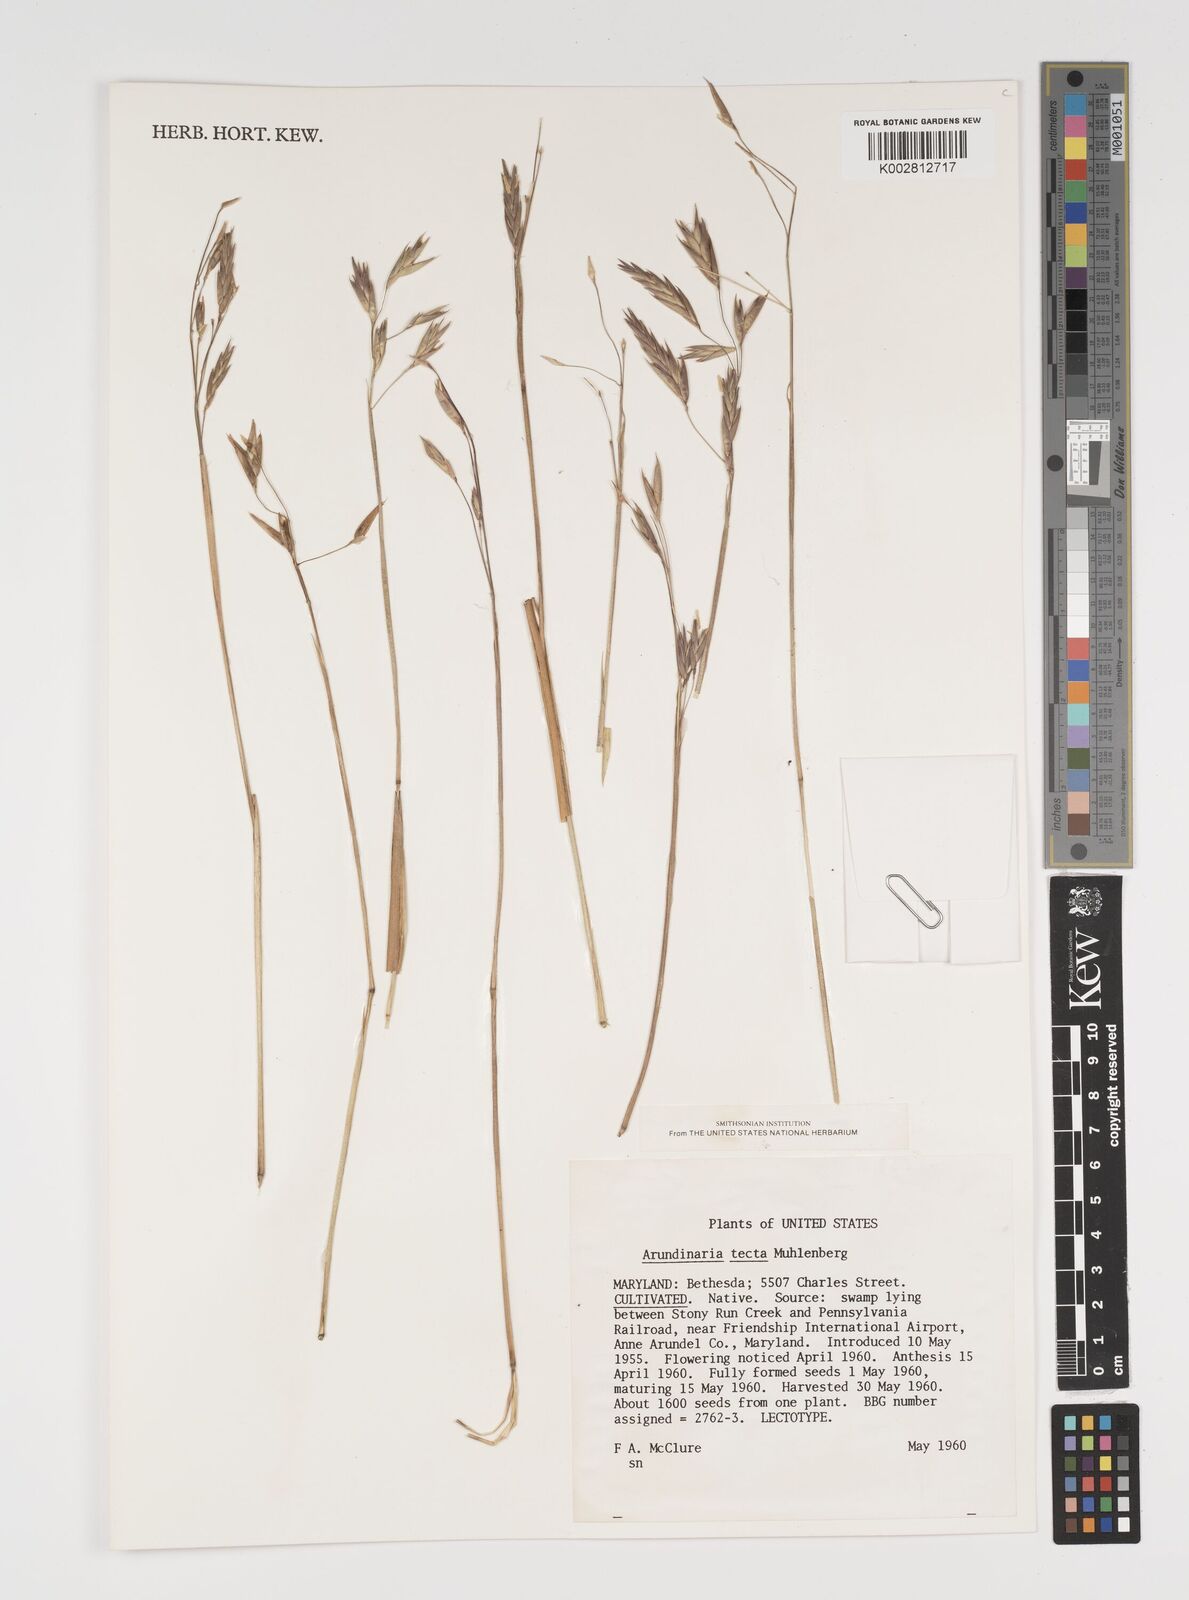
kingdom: Plantae
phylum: Tracheophyta
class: Liliopsida
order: Poales
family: Poaceae
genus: Arundinaria
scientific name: Arundinaria tecta
